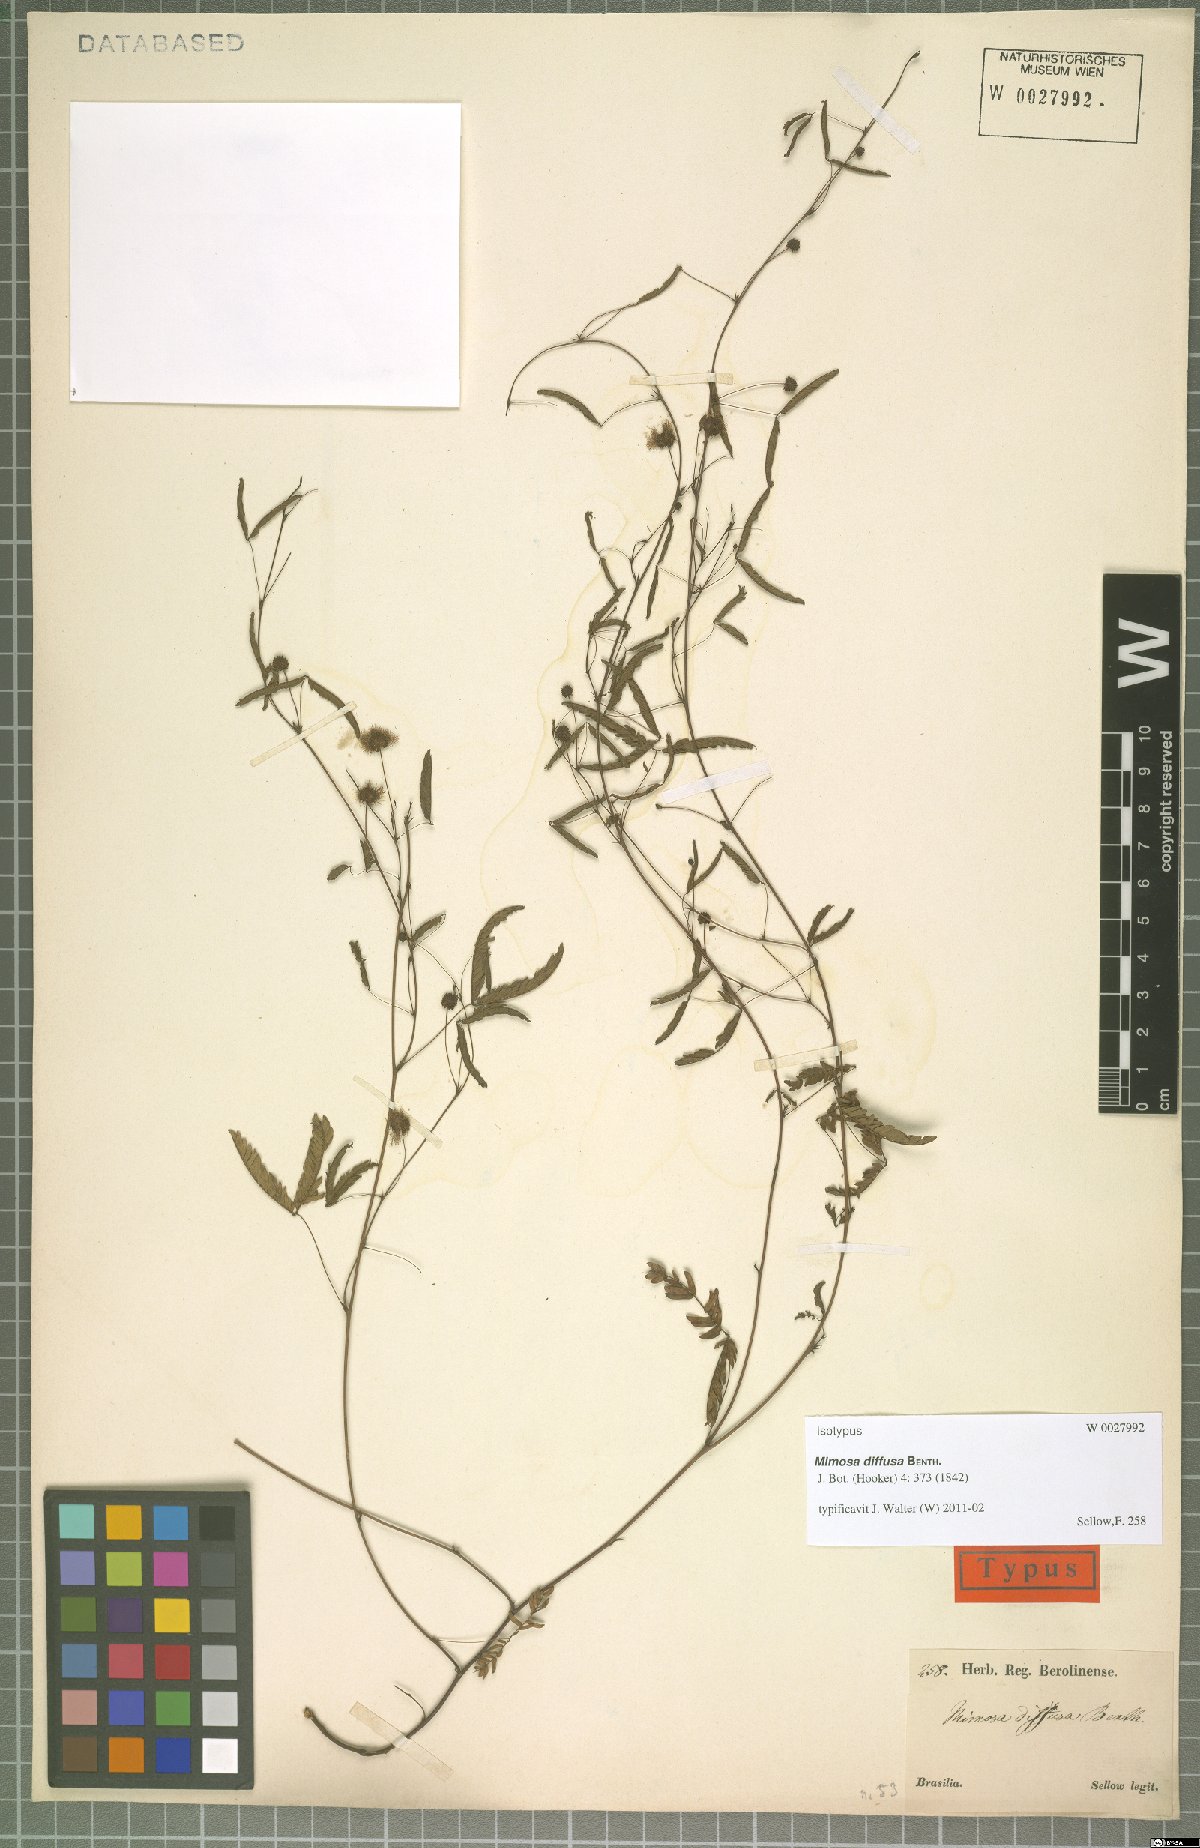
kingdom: Plantae
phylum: Tracheophyta
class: Magnoliopsida
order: Fabales
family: Fabaceae
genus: Mimosa
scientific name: Mimosa diffusa
